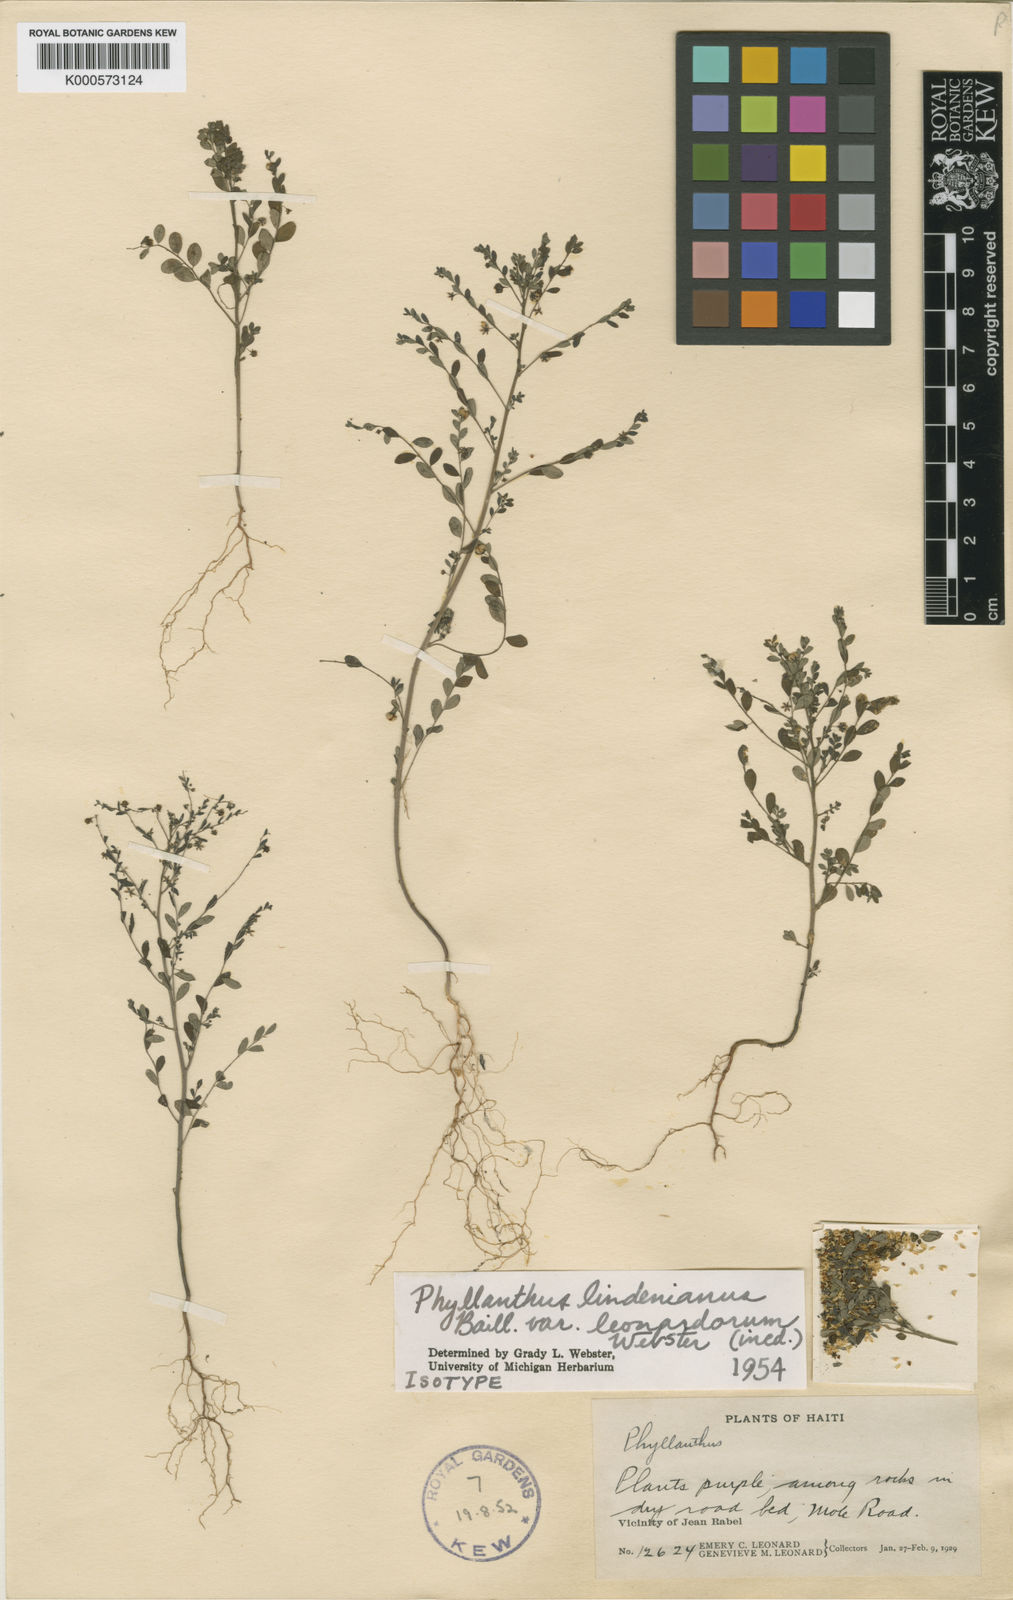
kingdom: Plantae
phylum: Tracheophyta
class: Magnoliopsida
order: Malpighiales
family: Phyllanthaceae
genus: Phyllanthus
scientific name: Phyllanthus lindenianus
